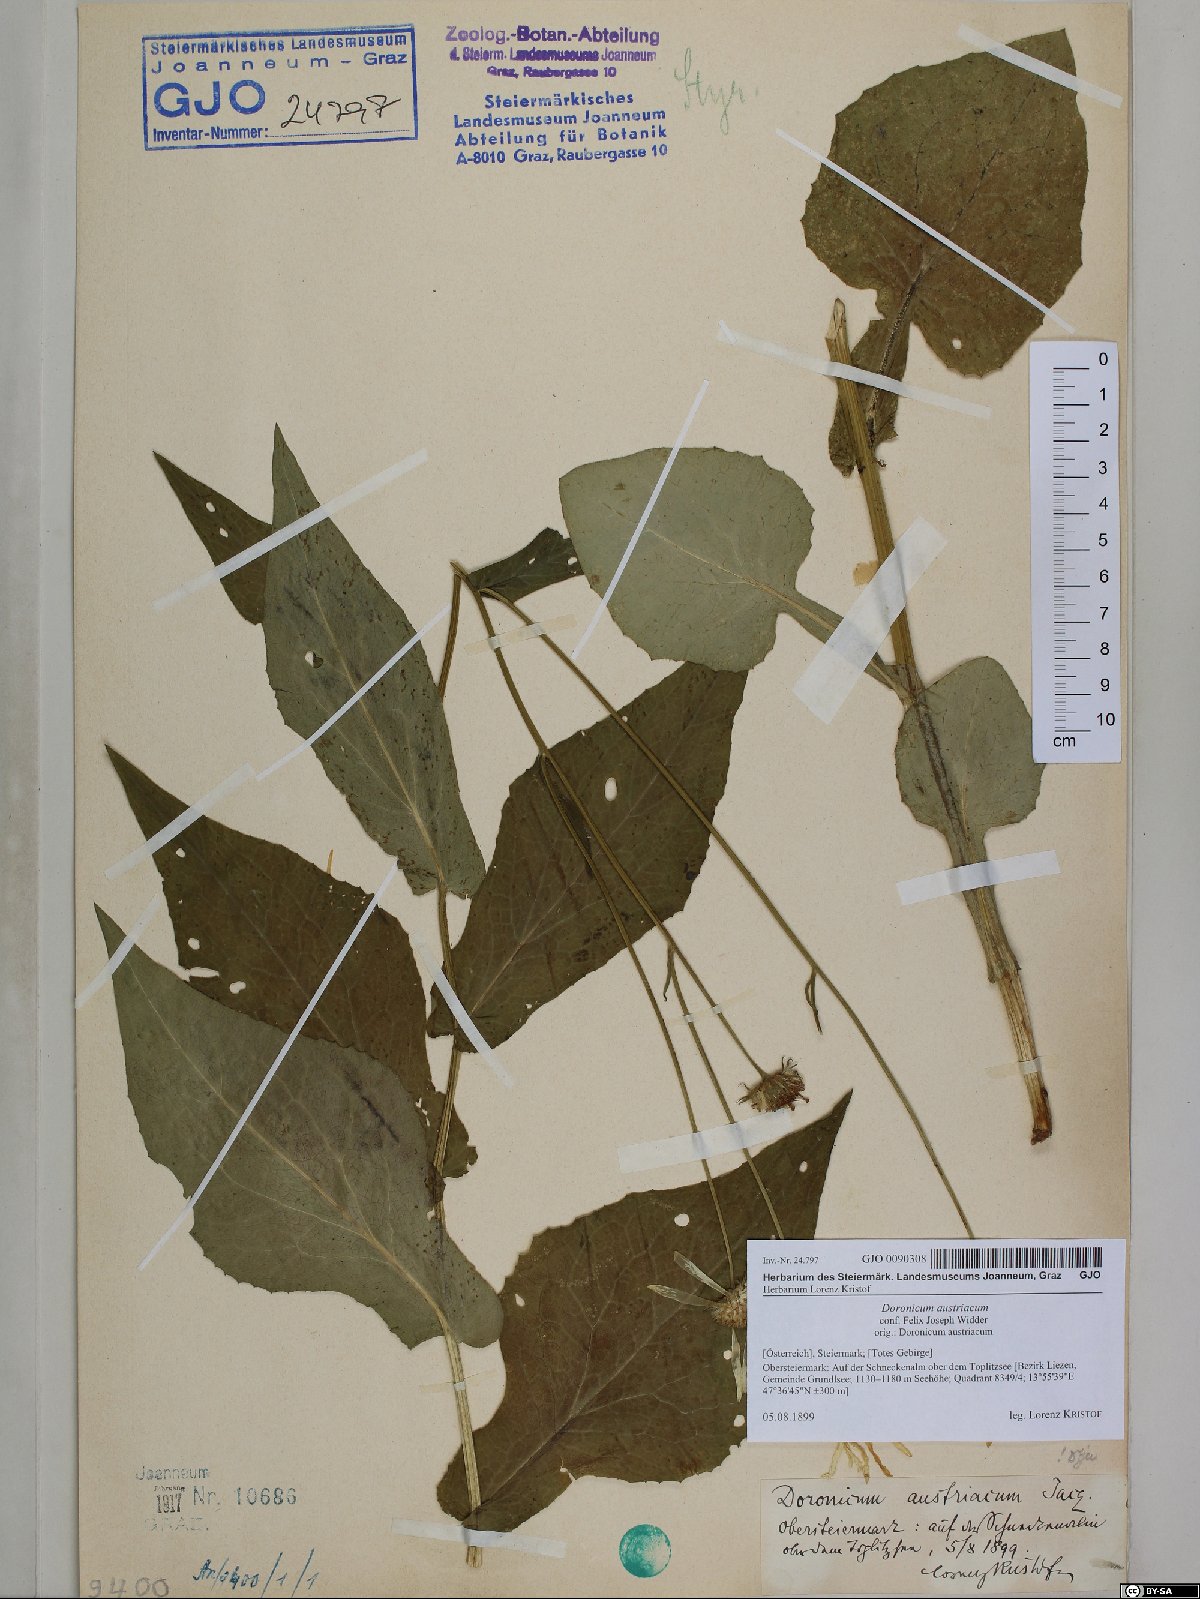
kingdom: Plantae
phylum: Tracheophyta
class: Magnoliopsida
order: Asterales
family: Asteraceae
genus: Doronicum
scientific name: Doronicum austriacum
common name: Austrian leopard's-bane
